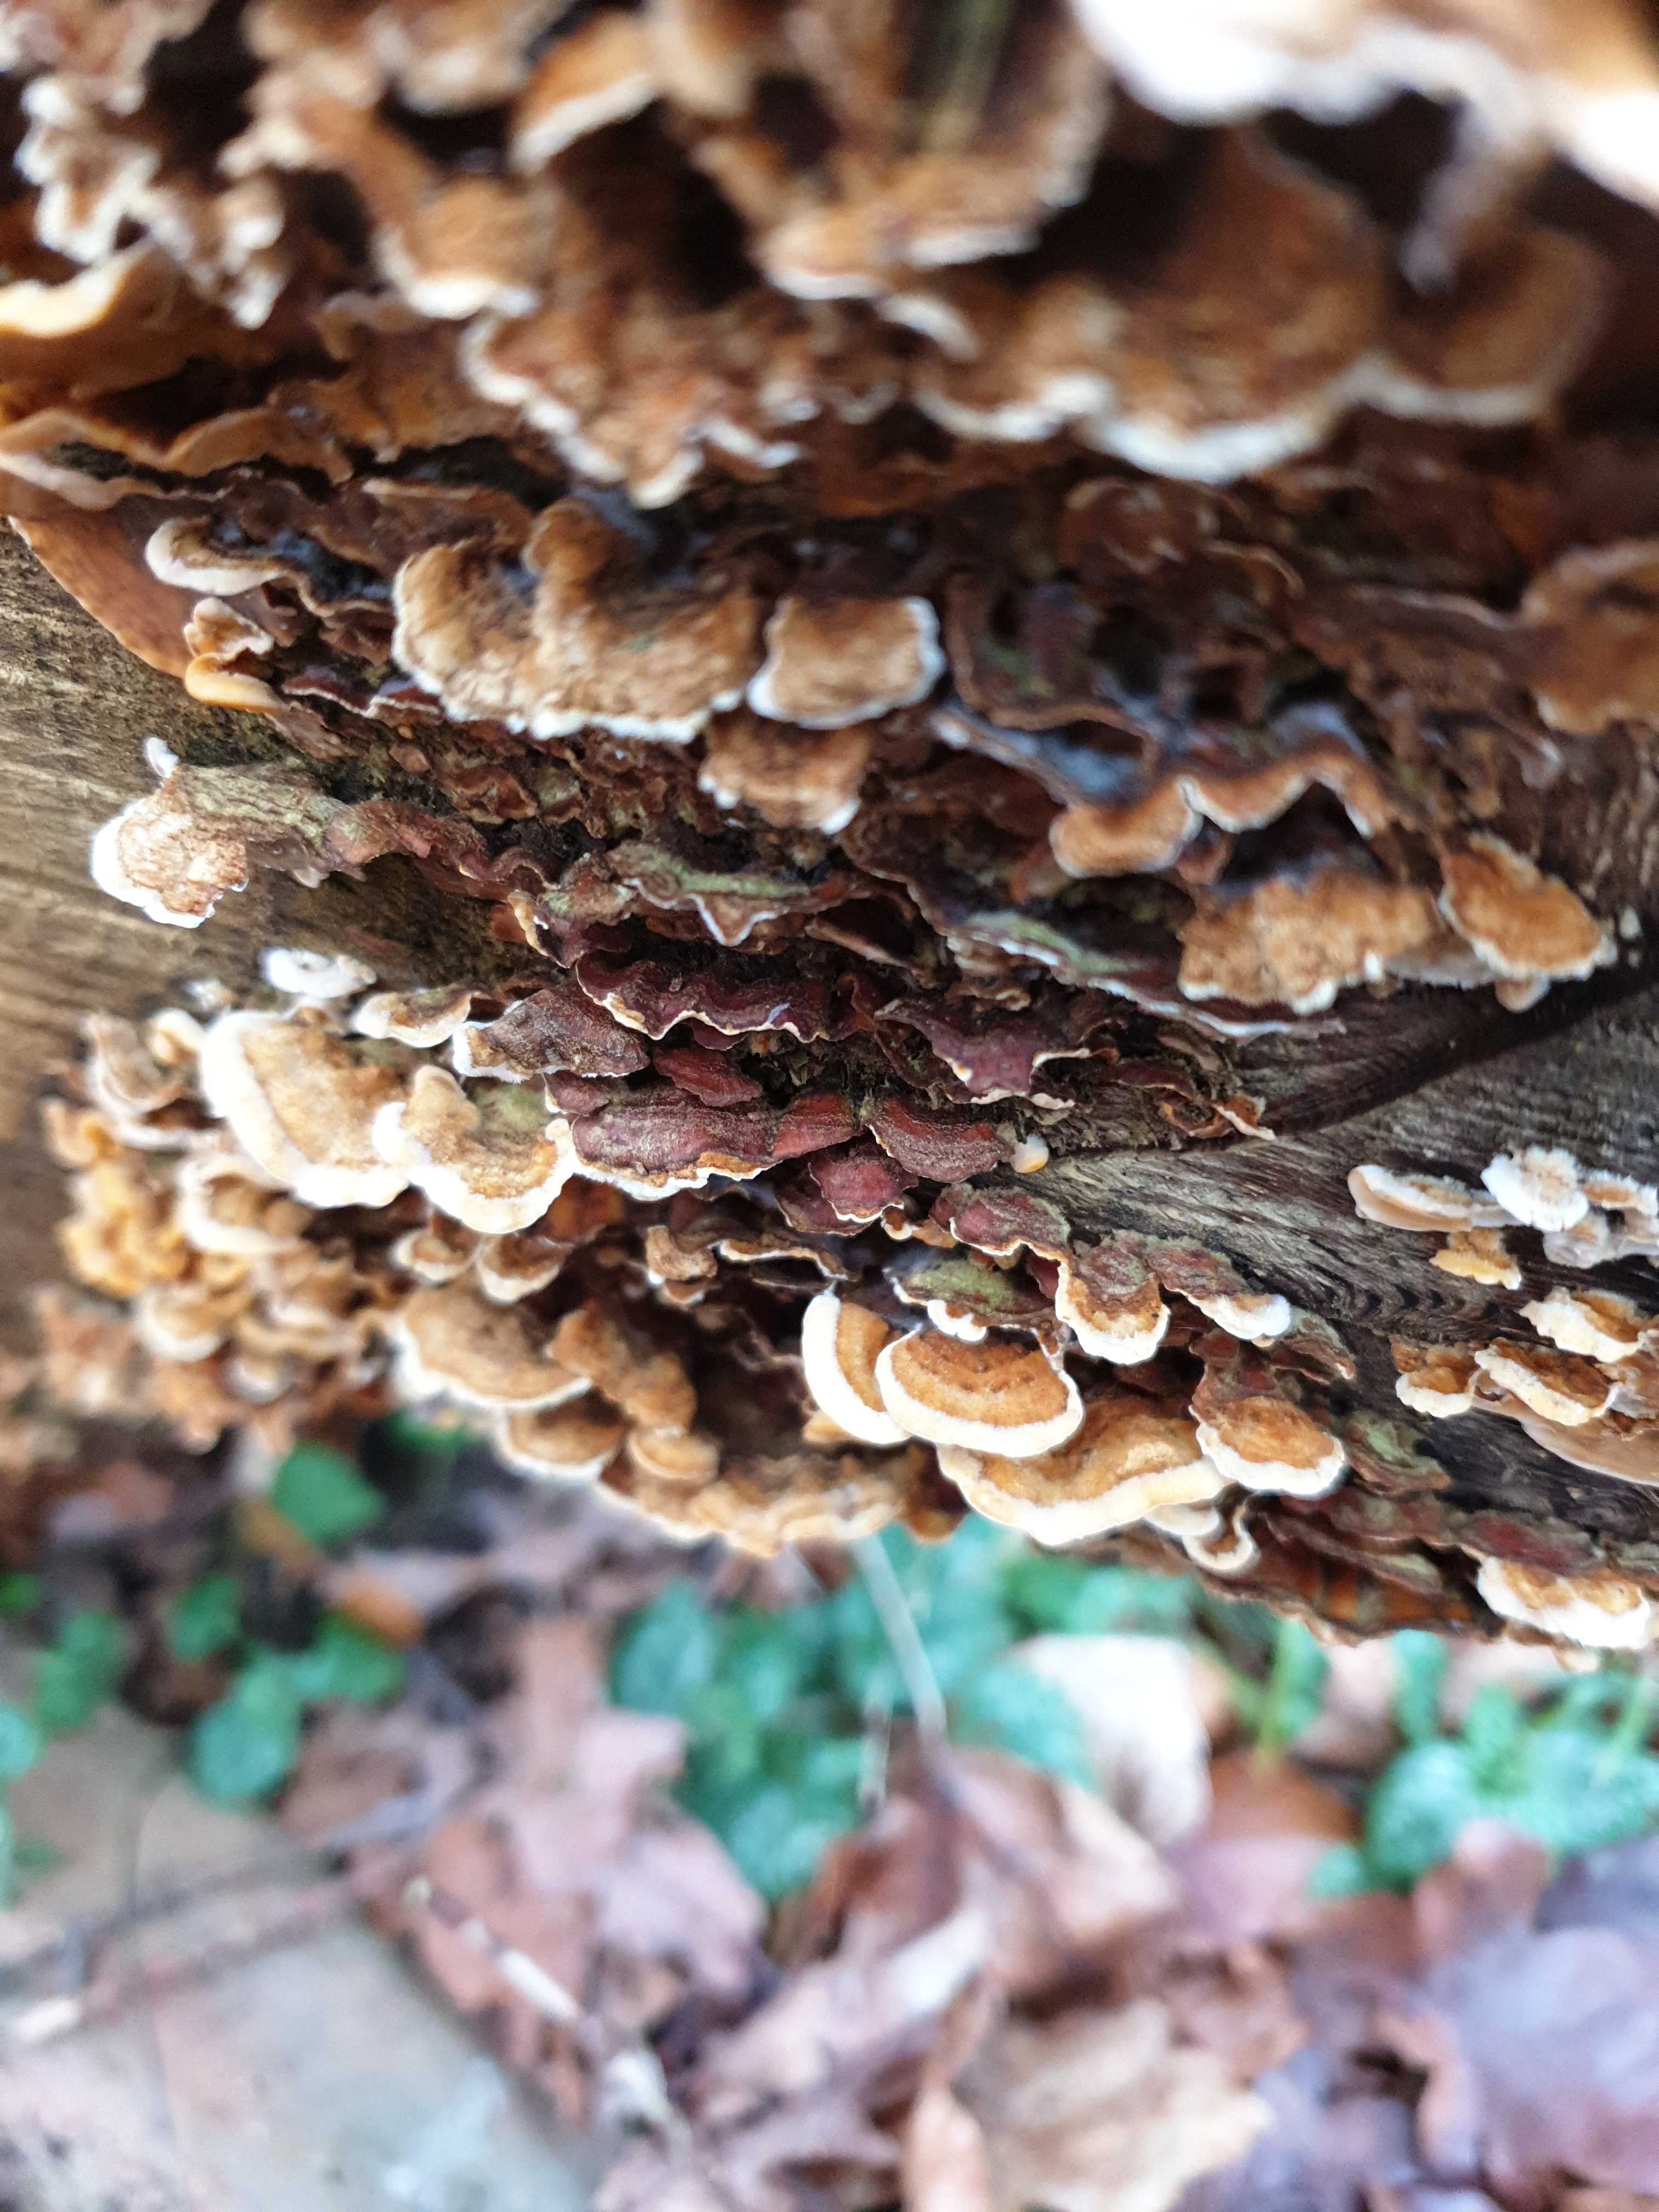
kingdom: Fungi
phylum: Basidiomycota
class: Agaricomycetes
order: Russulales
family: Stereaceae
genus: Stereum
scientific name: Stereum hirsutum
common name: håret lædersvamp
